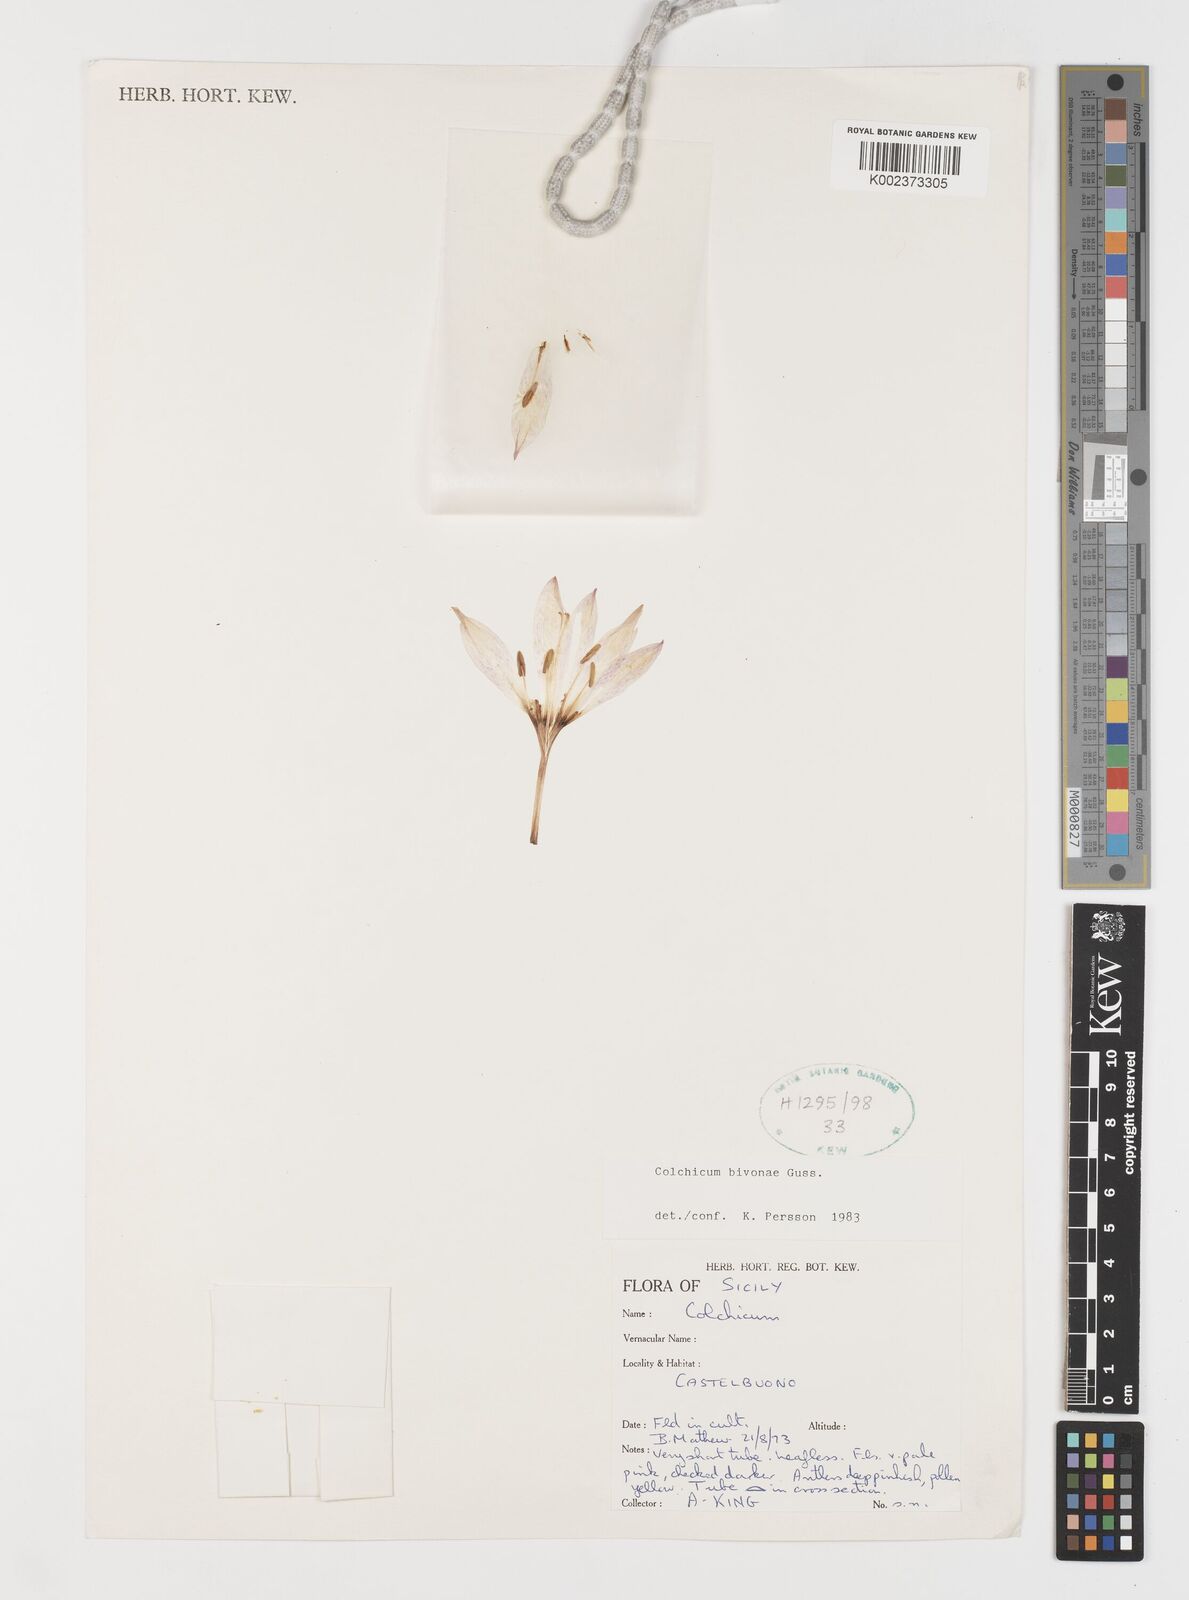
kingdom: Plantae
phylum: Tracheophyta
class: Liliopsida
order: Liliales
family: Colchicaceae
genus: Colchicum
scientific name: Colchicum bivonae
